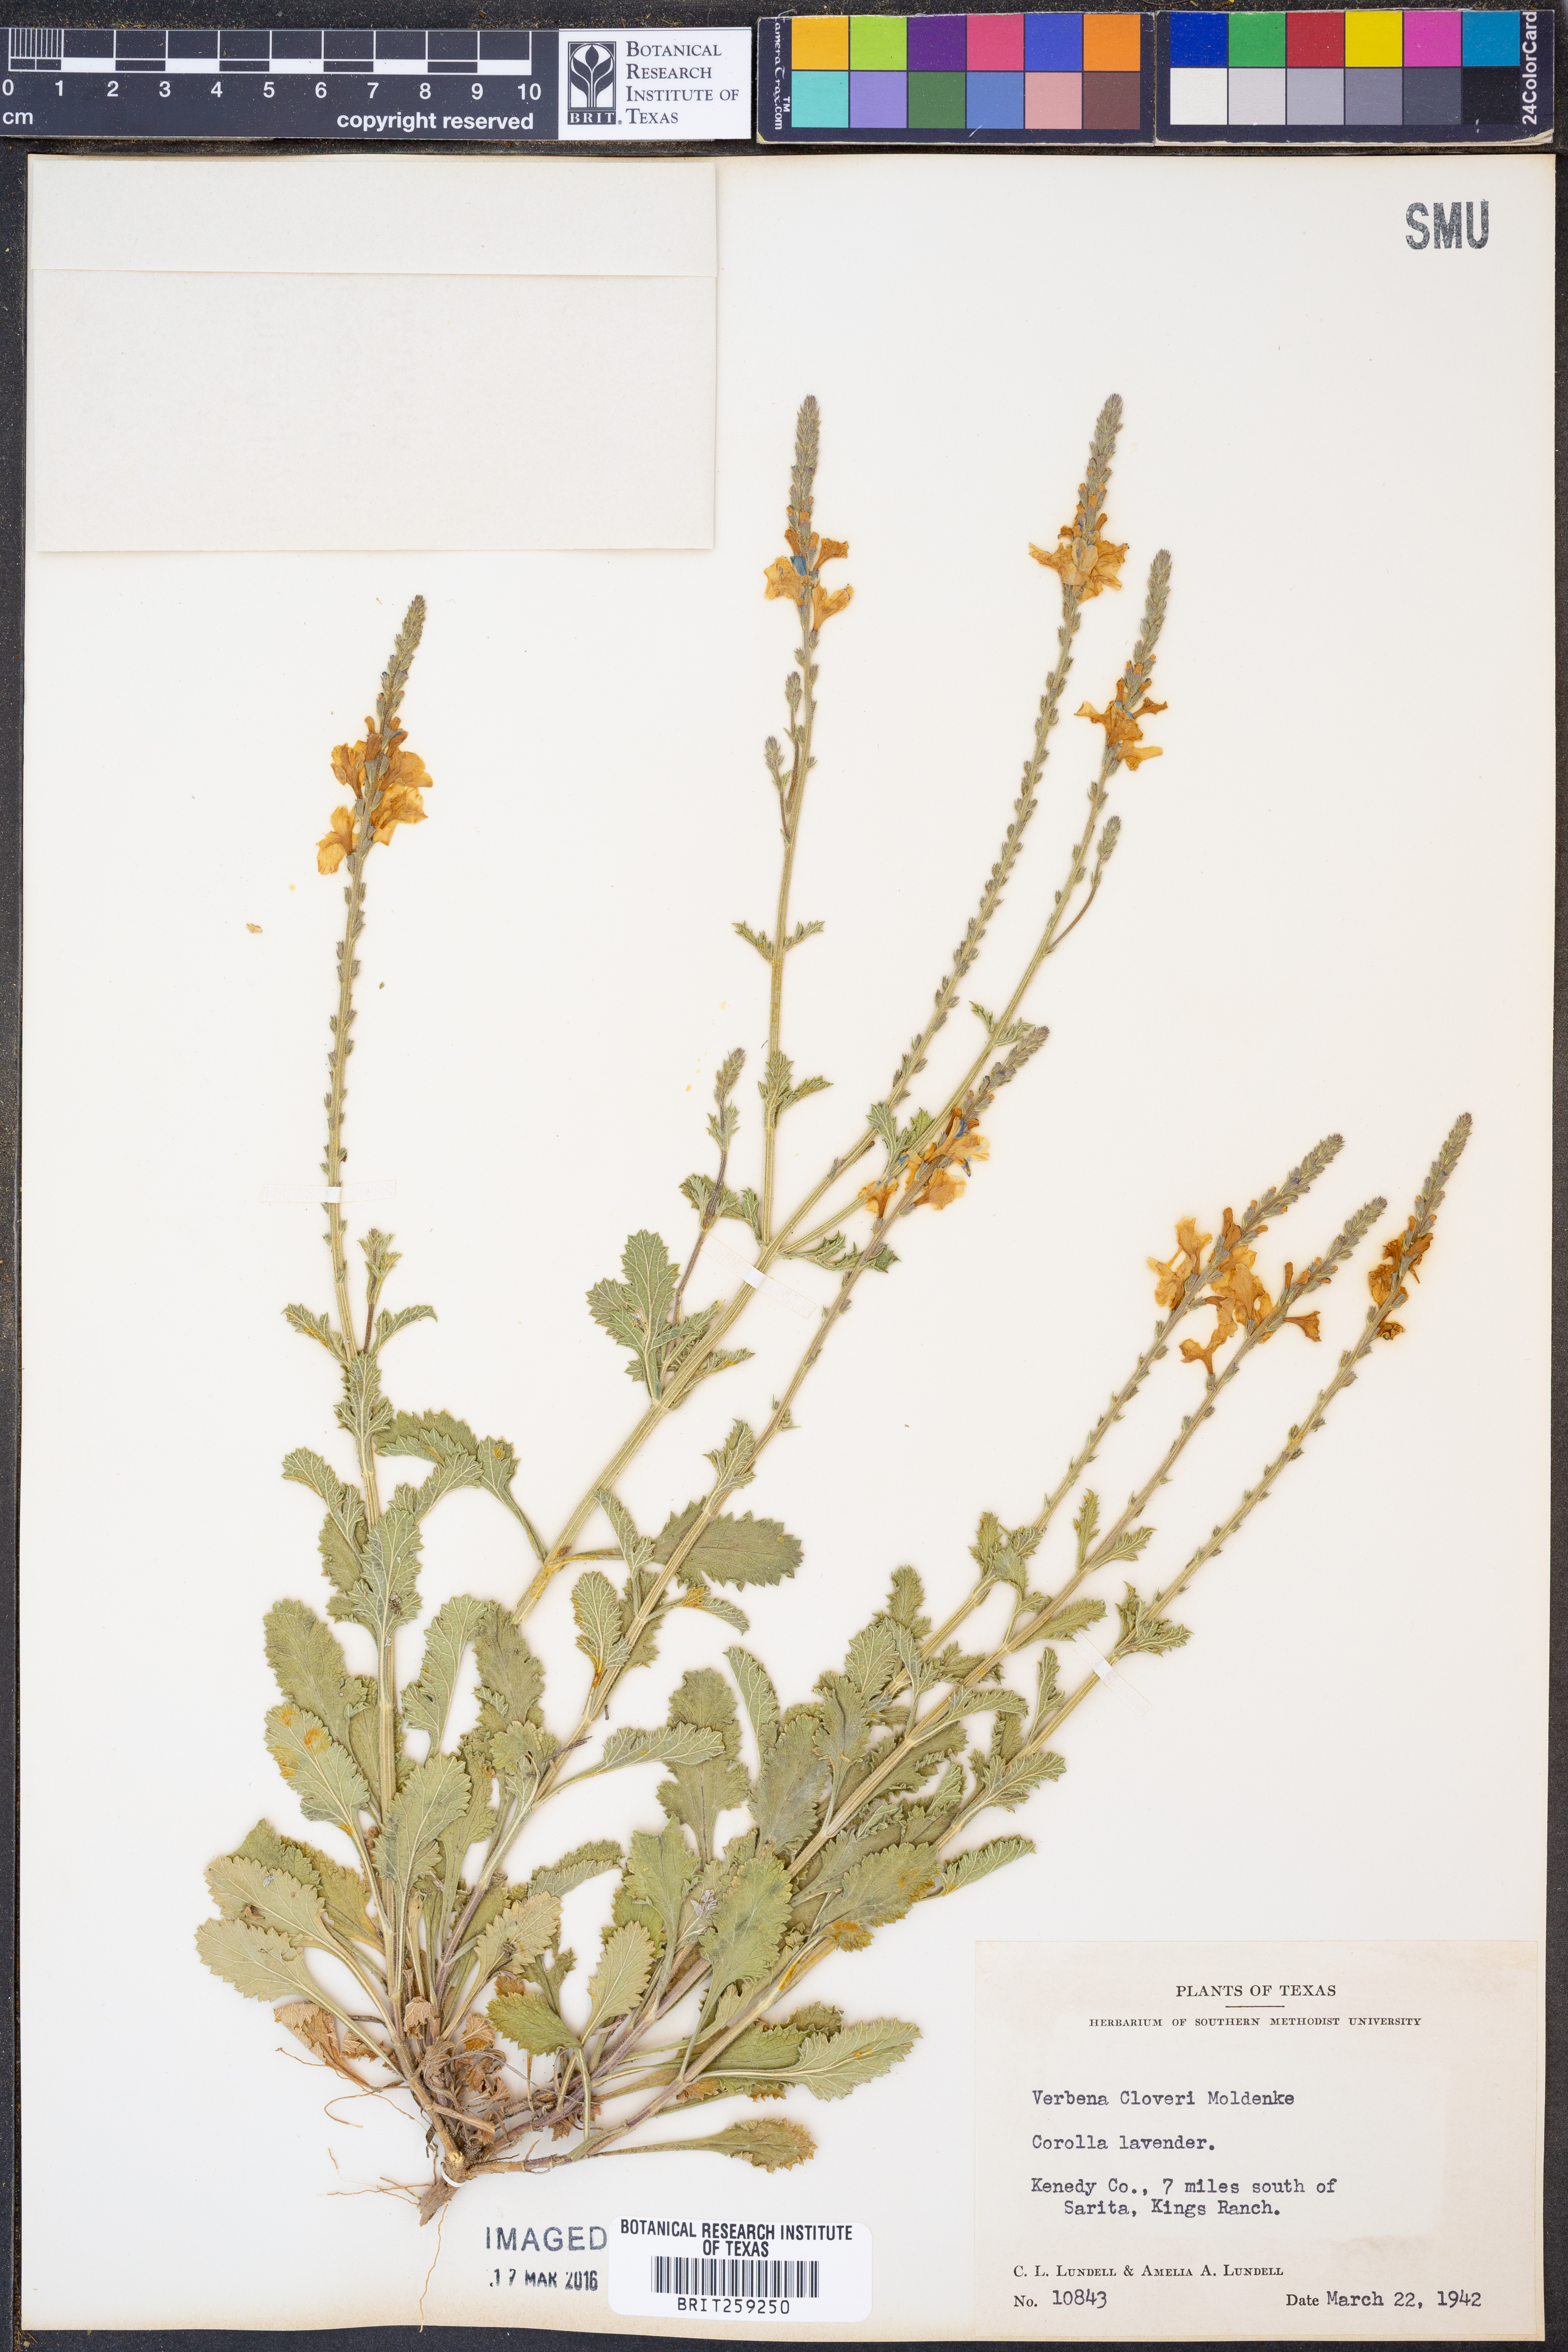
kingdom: Plantae
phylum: Tracheophyta
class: Magnoliopsida
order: Lamiales
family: Verbenaceae
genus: Verbena
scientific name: Verbena cloveri
